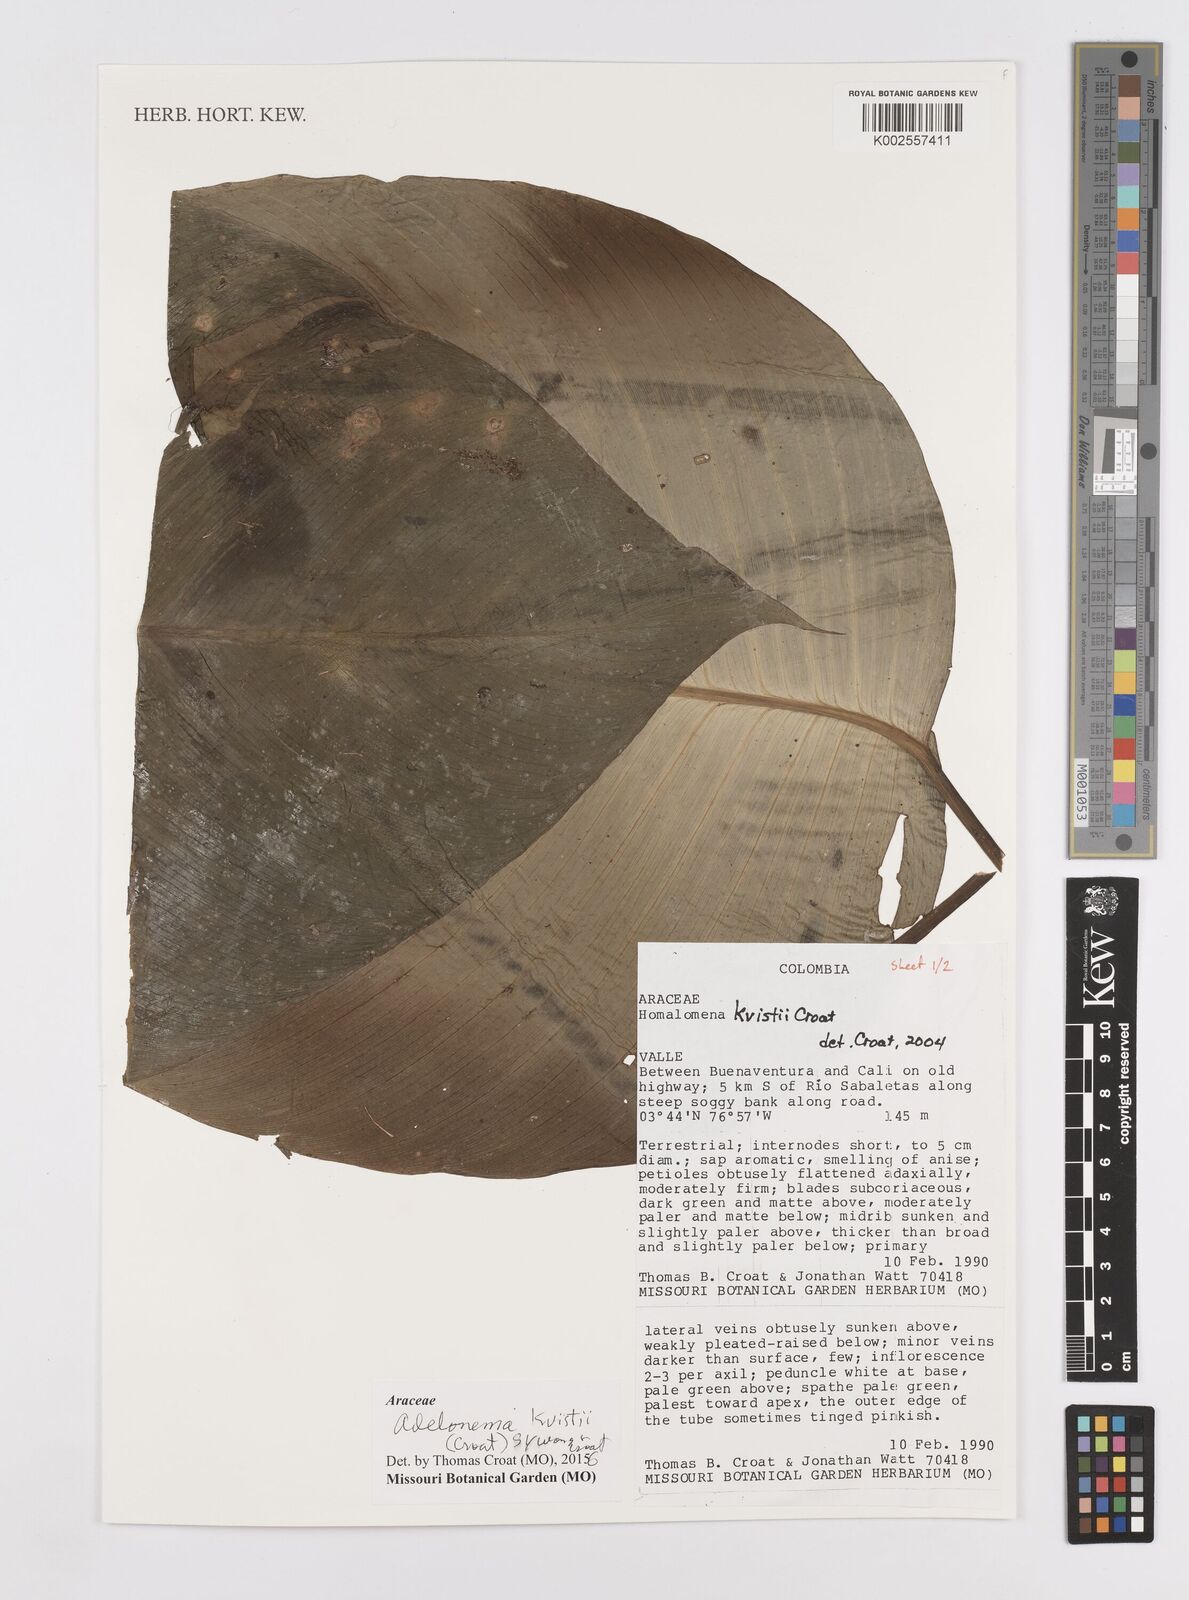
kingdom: Plantae
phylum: Tracheophyta
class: Liliopsida
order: Alismatales
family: Araceae
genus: Adelonema
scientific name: Adelonema kvistii
